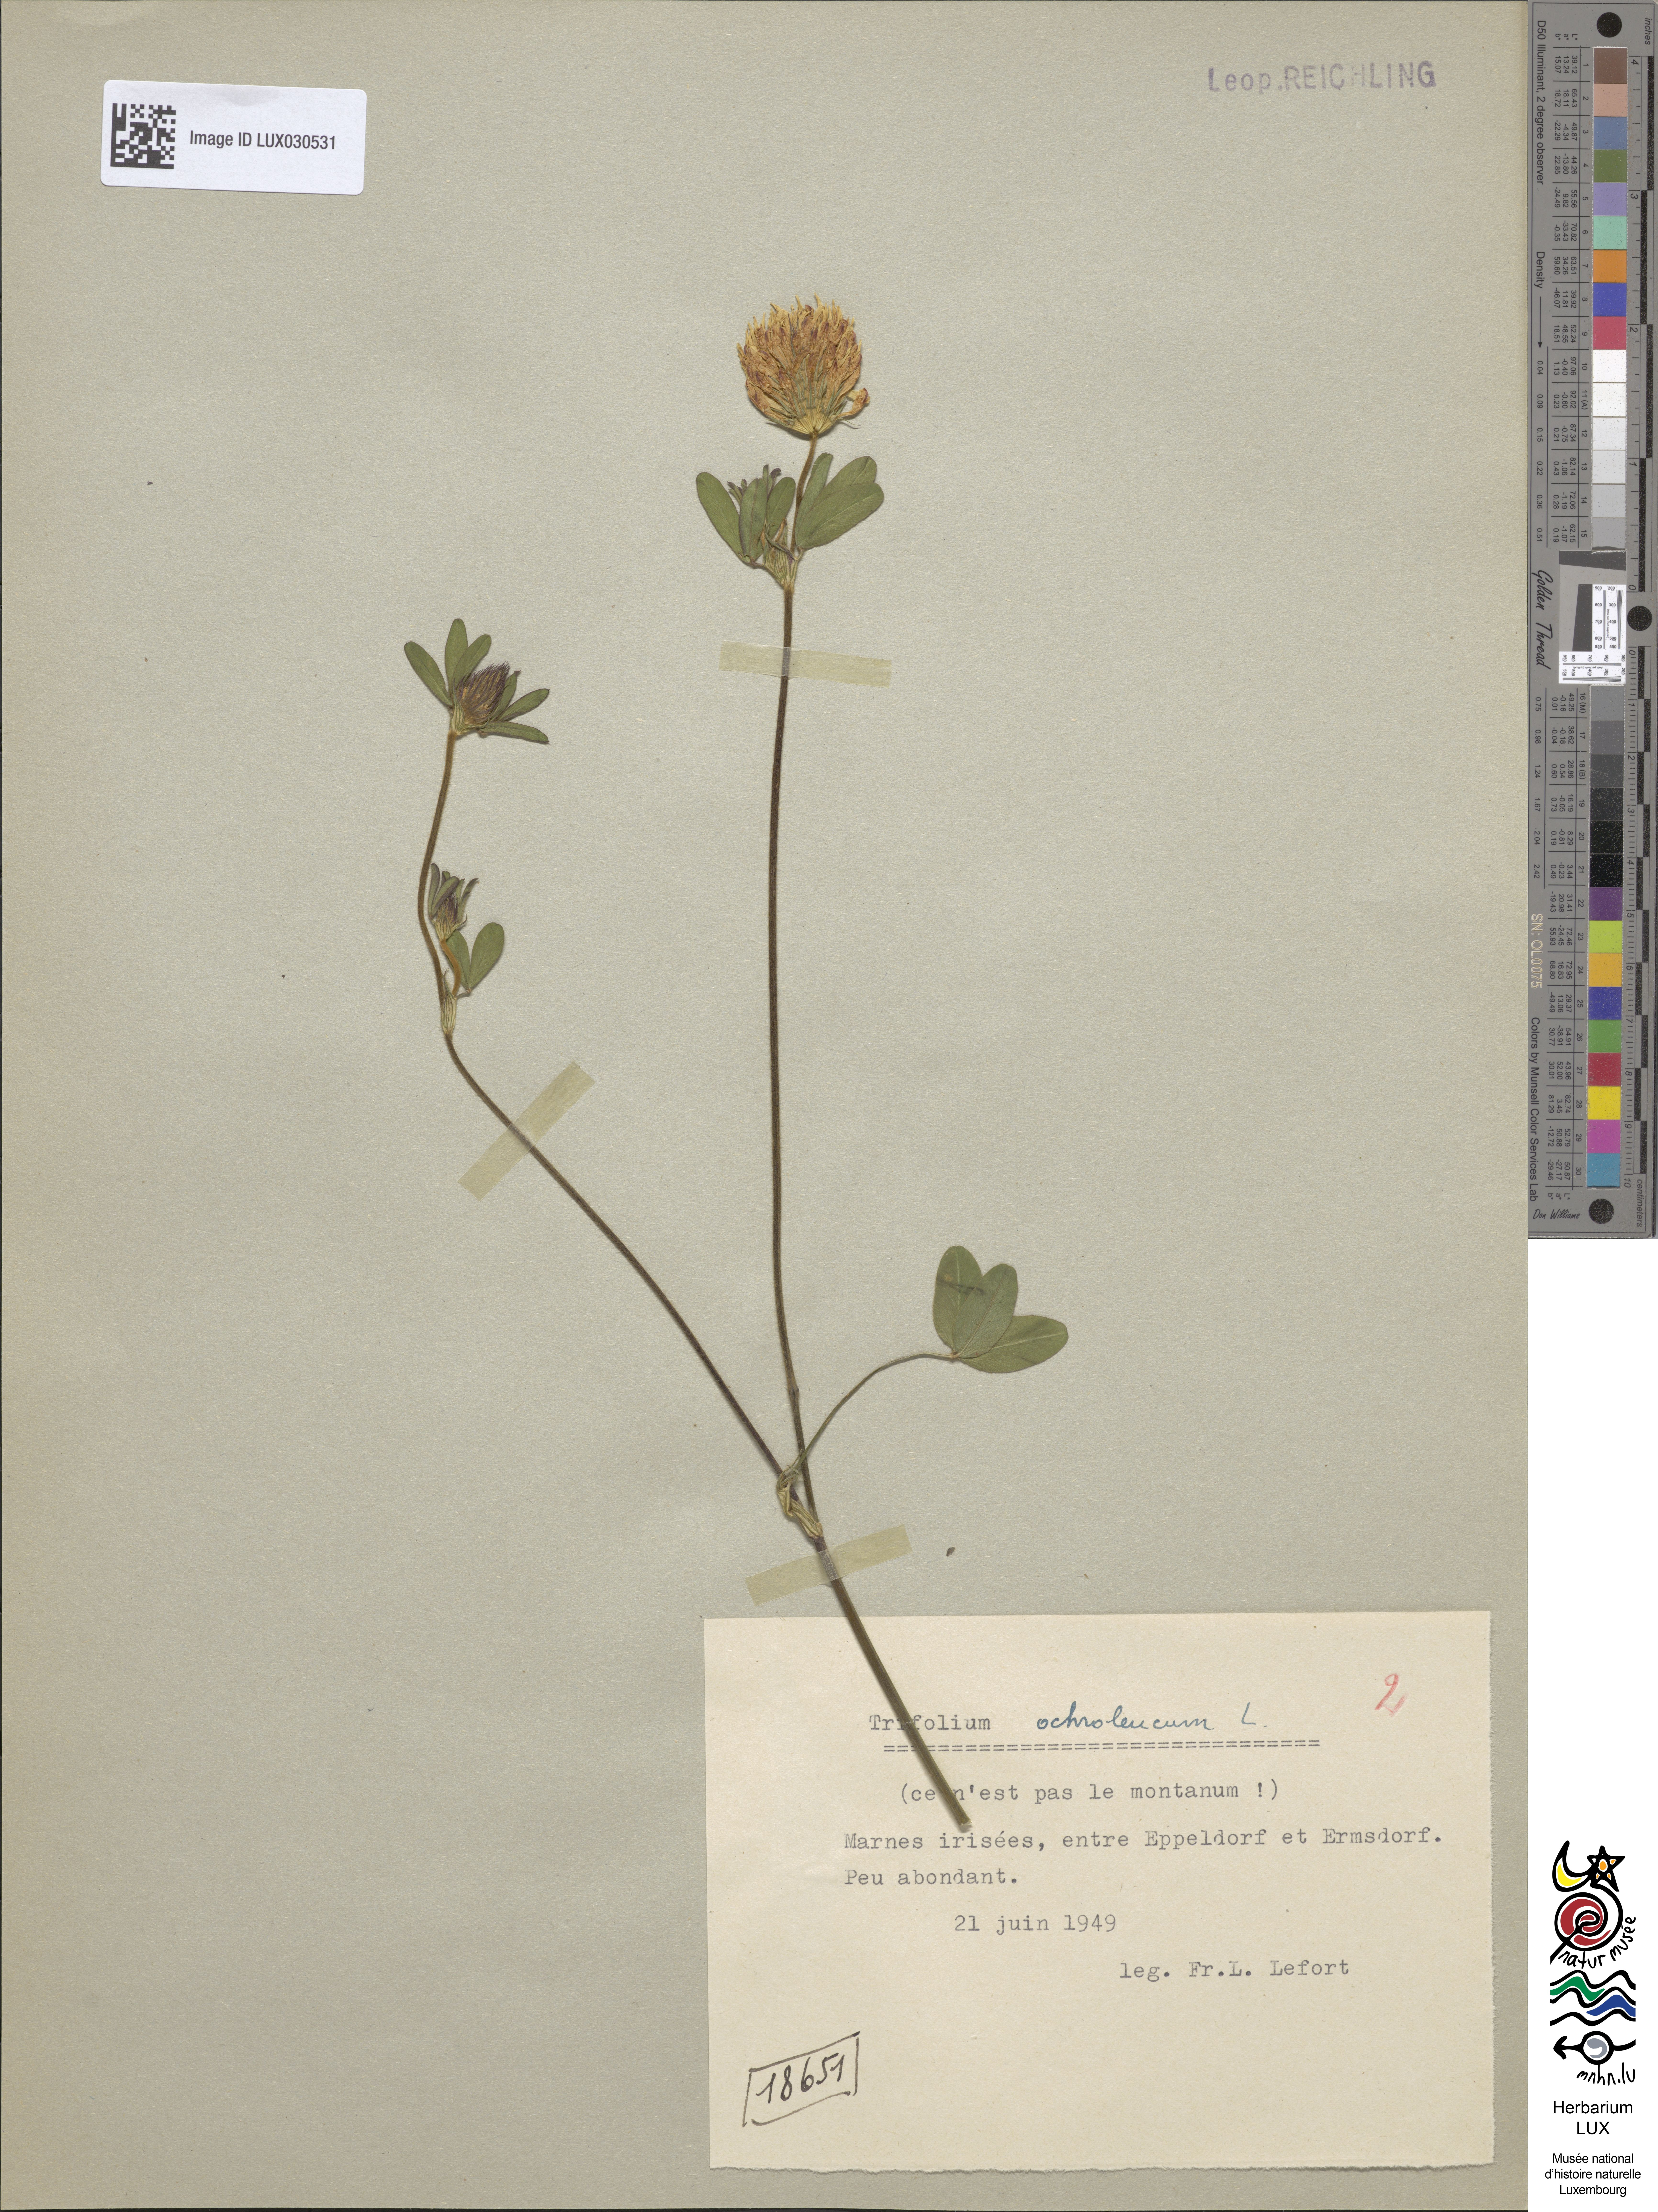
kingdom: Plantae
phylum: Tracheophyta
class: Magnoliopsida
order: Fabales
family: Fabaceae
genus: Trifolium
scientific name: Trifolium ochroleucon
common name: Sulphur clover
